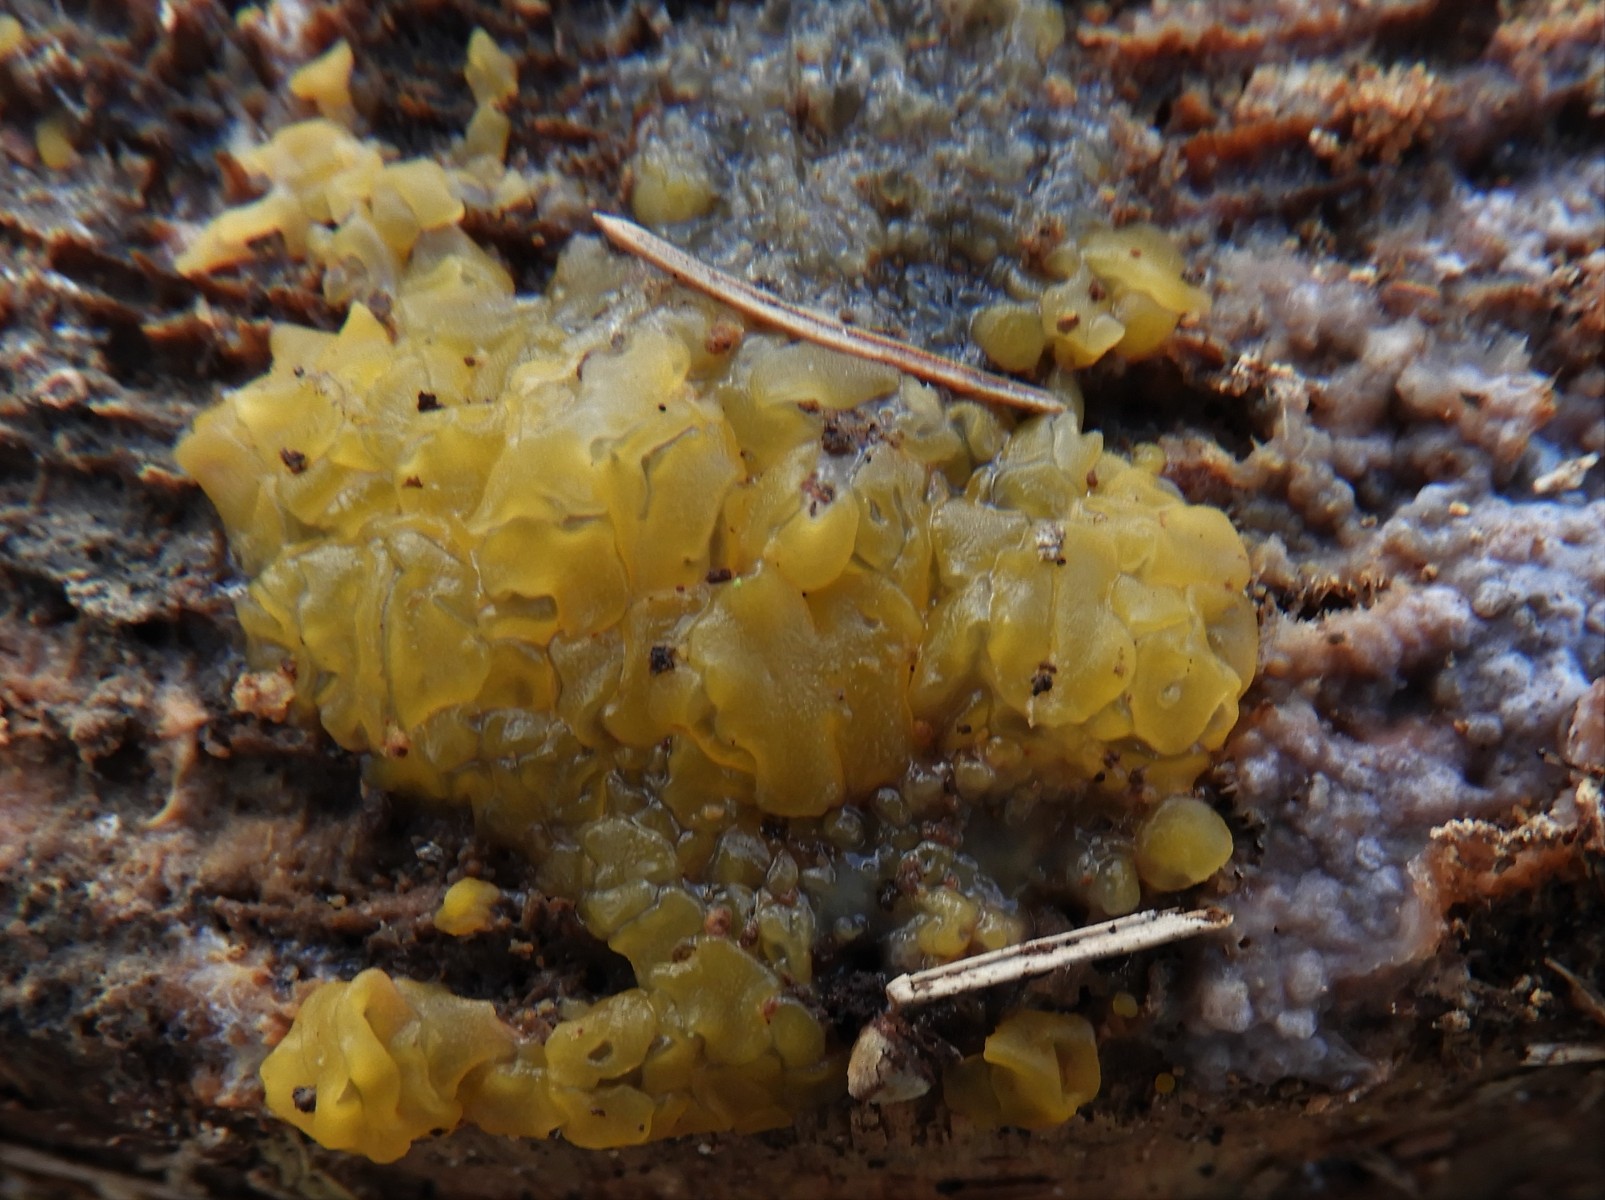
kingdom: Fungi
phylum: Basidiomycota
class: Dacrymycetes
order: Dacrymycetales
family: Dacrymycetaceae
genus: Dacrymyces
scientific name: Dacrymyces lacrymalis
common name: rynket tåresvamp
